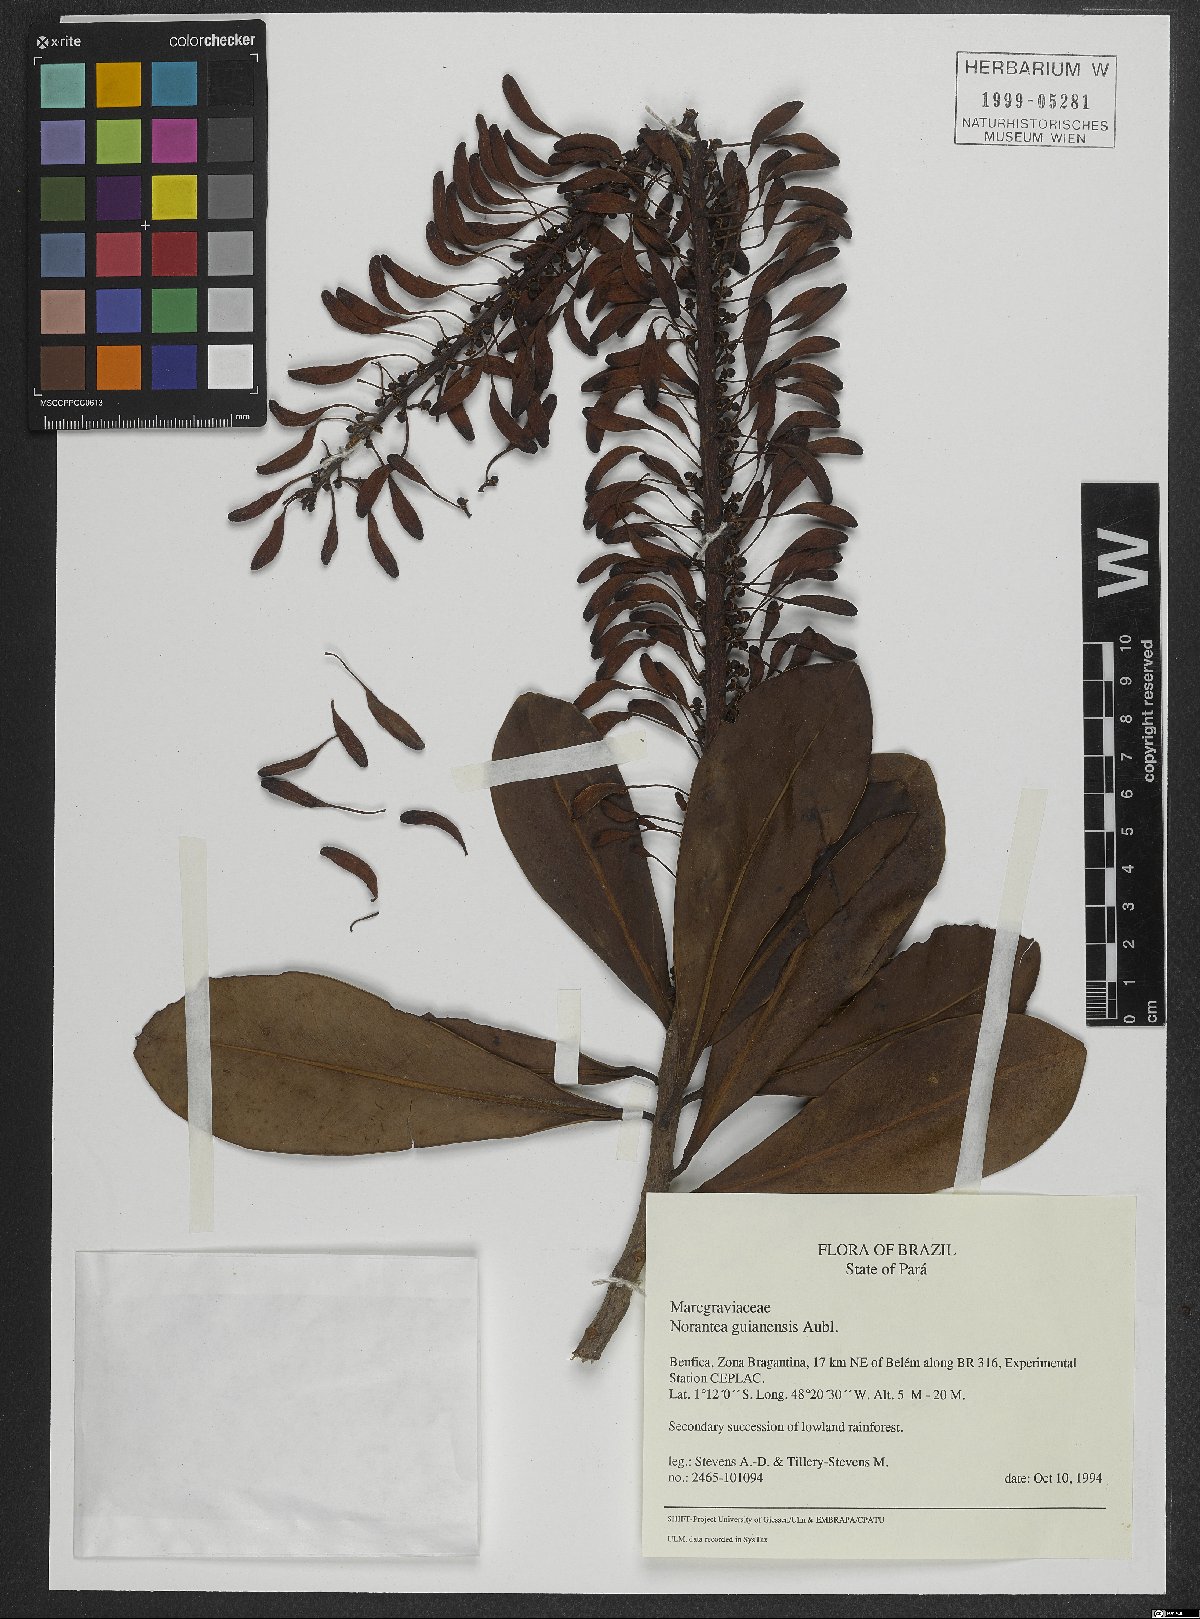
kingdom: Plantae
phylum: Tracheophyta
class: Magnoliopsida
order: Ericales
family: Marcgraviaceae
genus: Norantea
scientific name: Norantea guianensis
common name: Red hot poker vine
